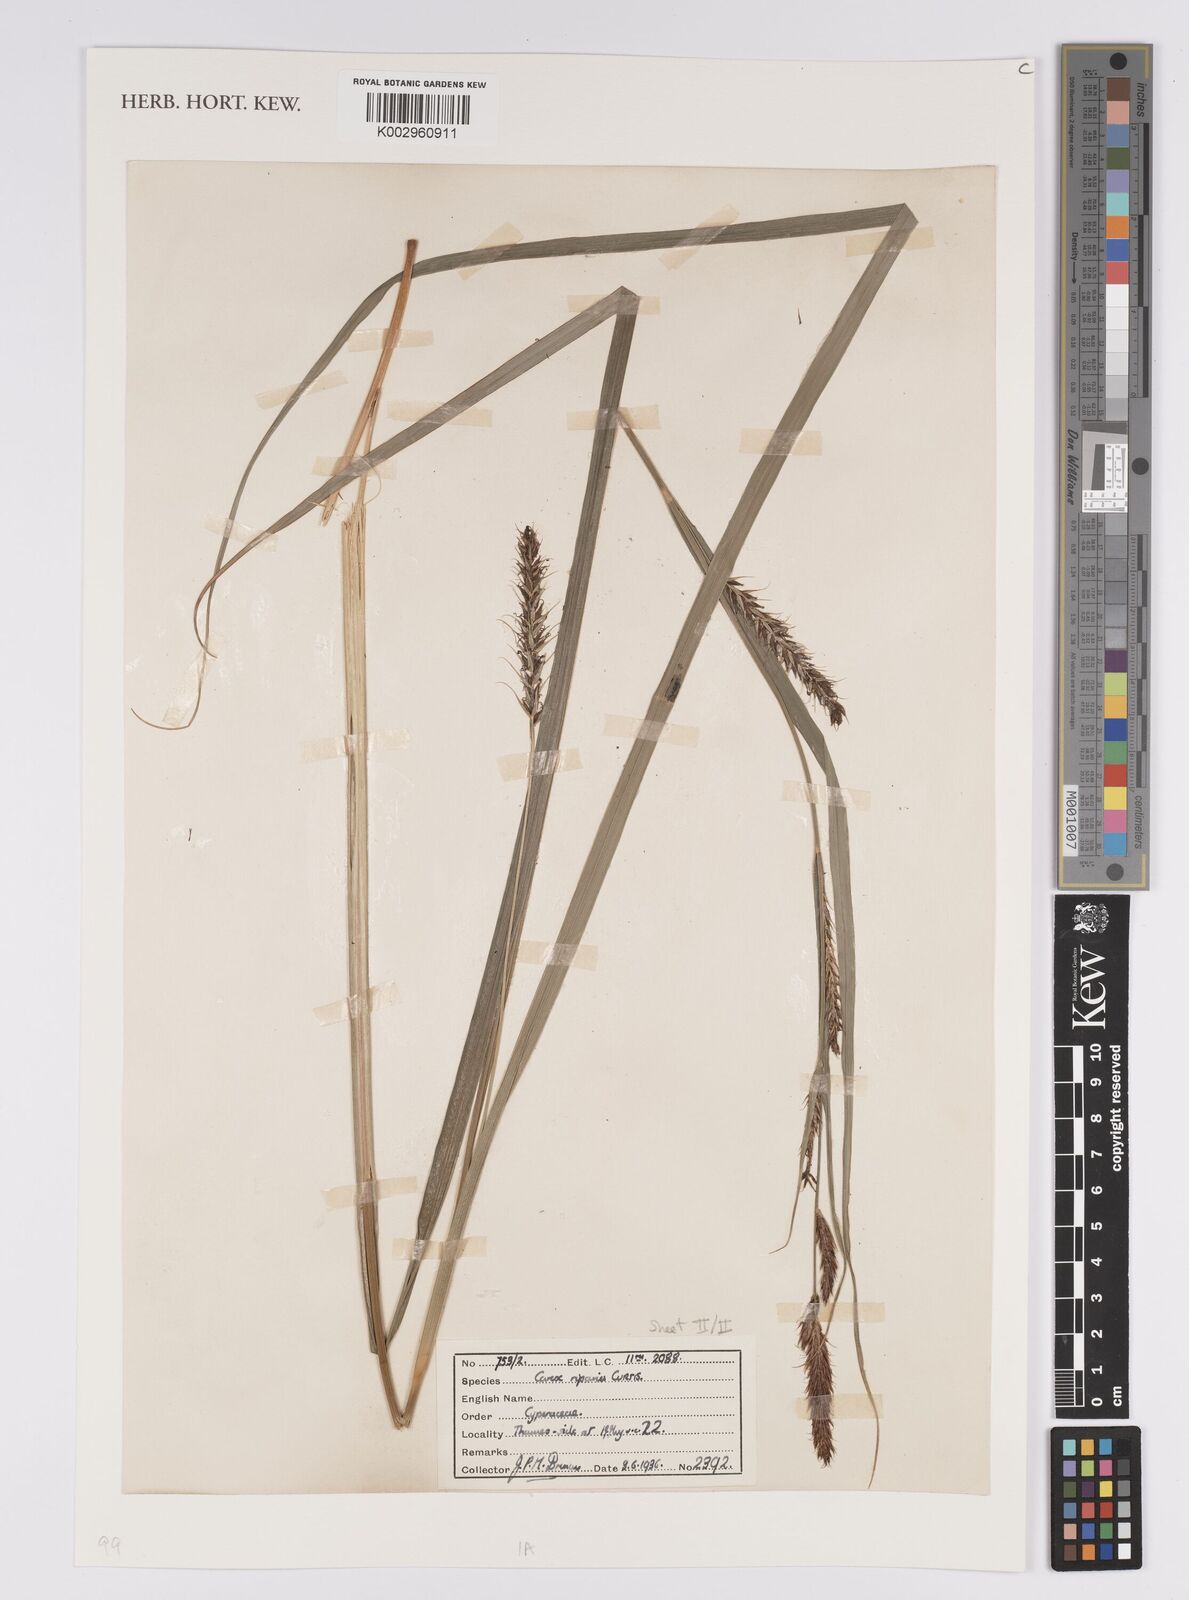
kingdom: Plantae
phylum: Tracheophyta
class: Liliopsida
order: Poales
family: Cyperaceae
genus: Carex
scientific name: Carex riparia
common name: Greater pond-sedge
